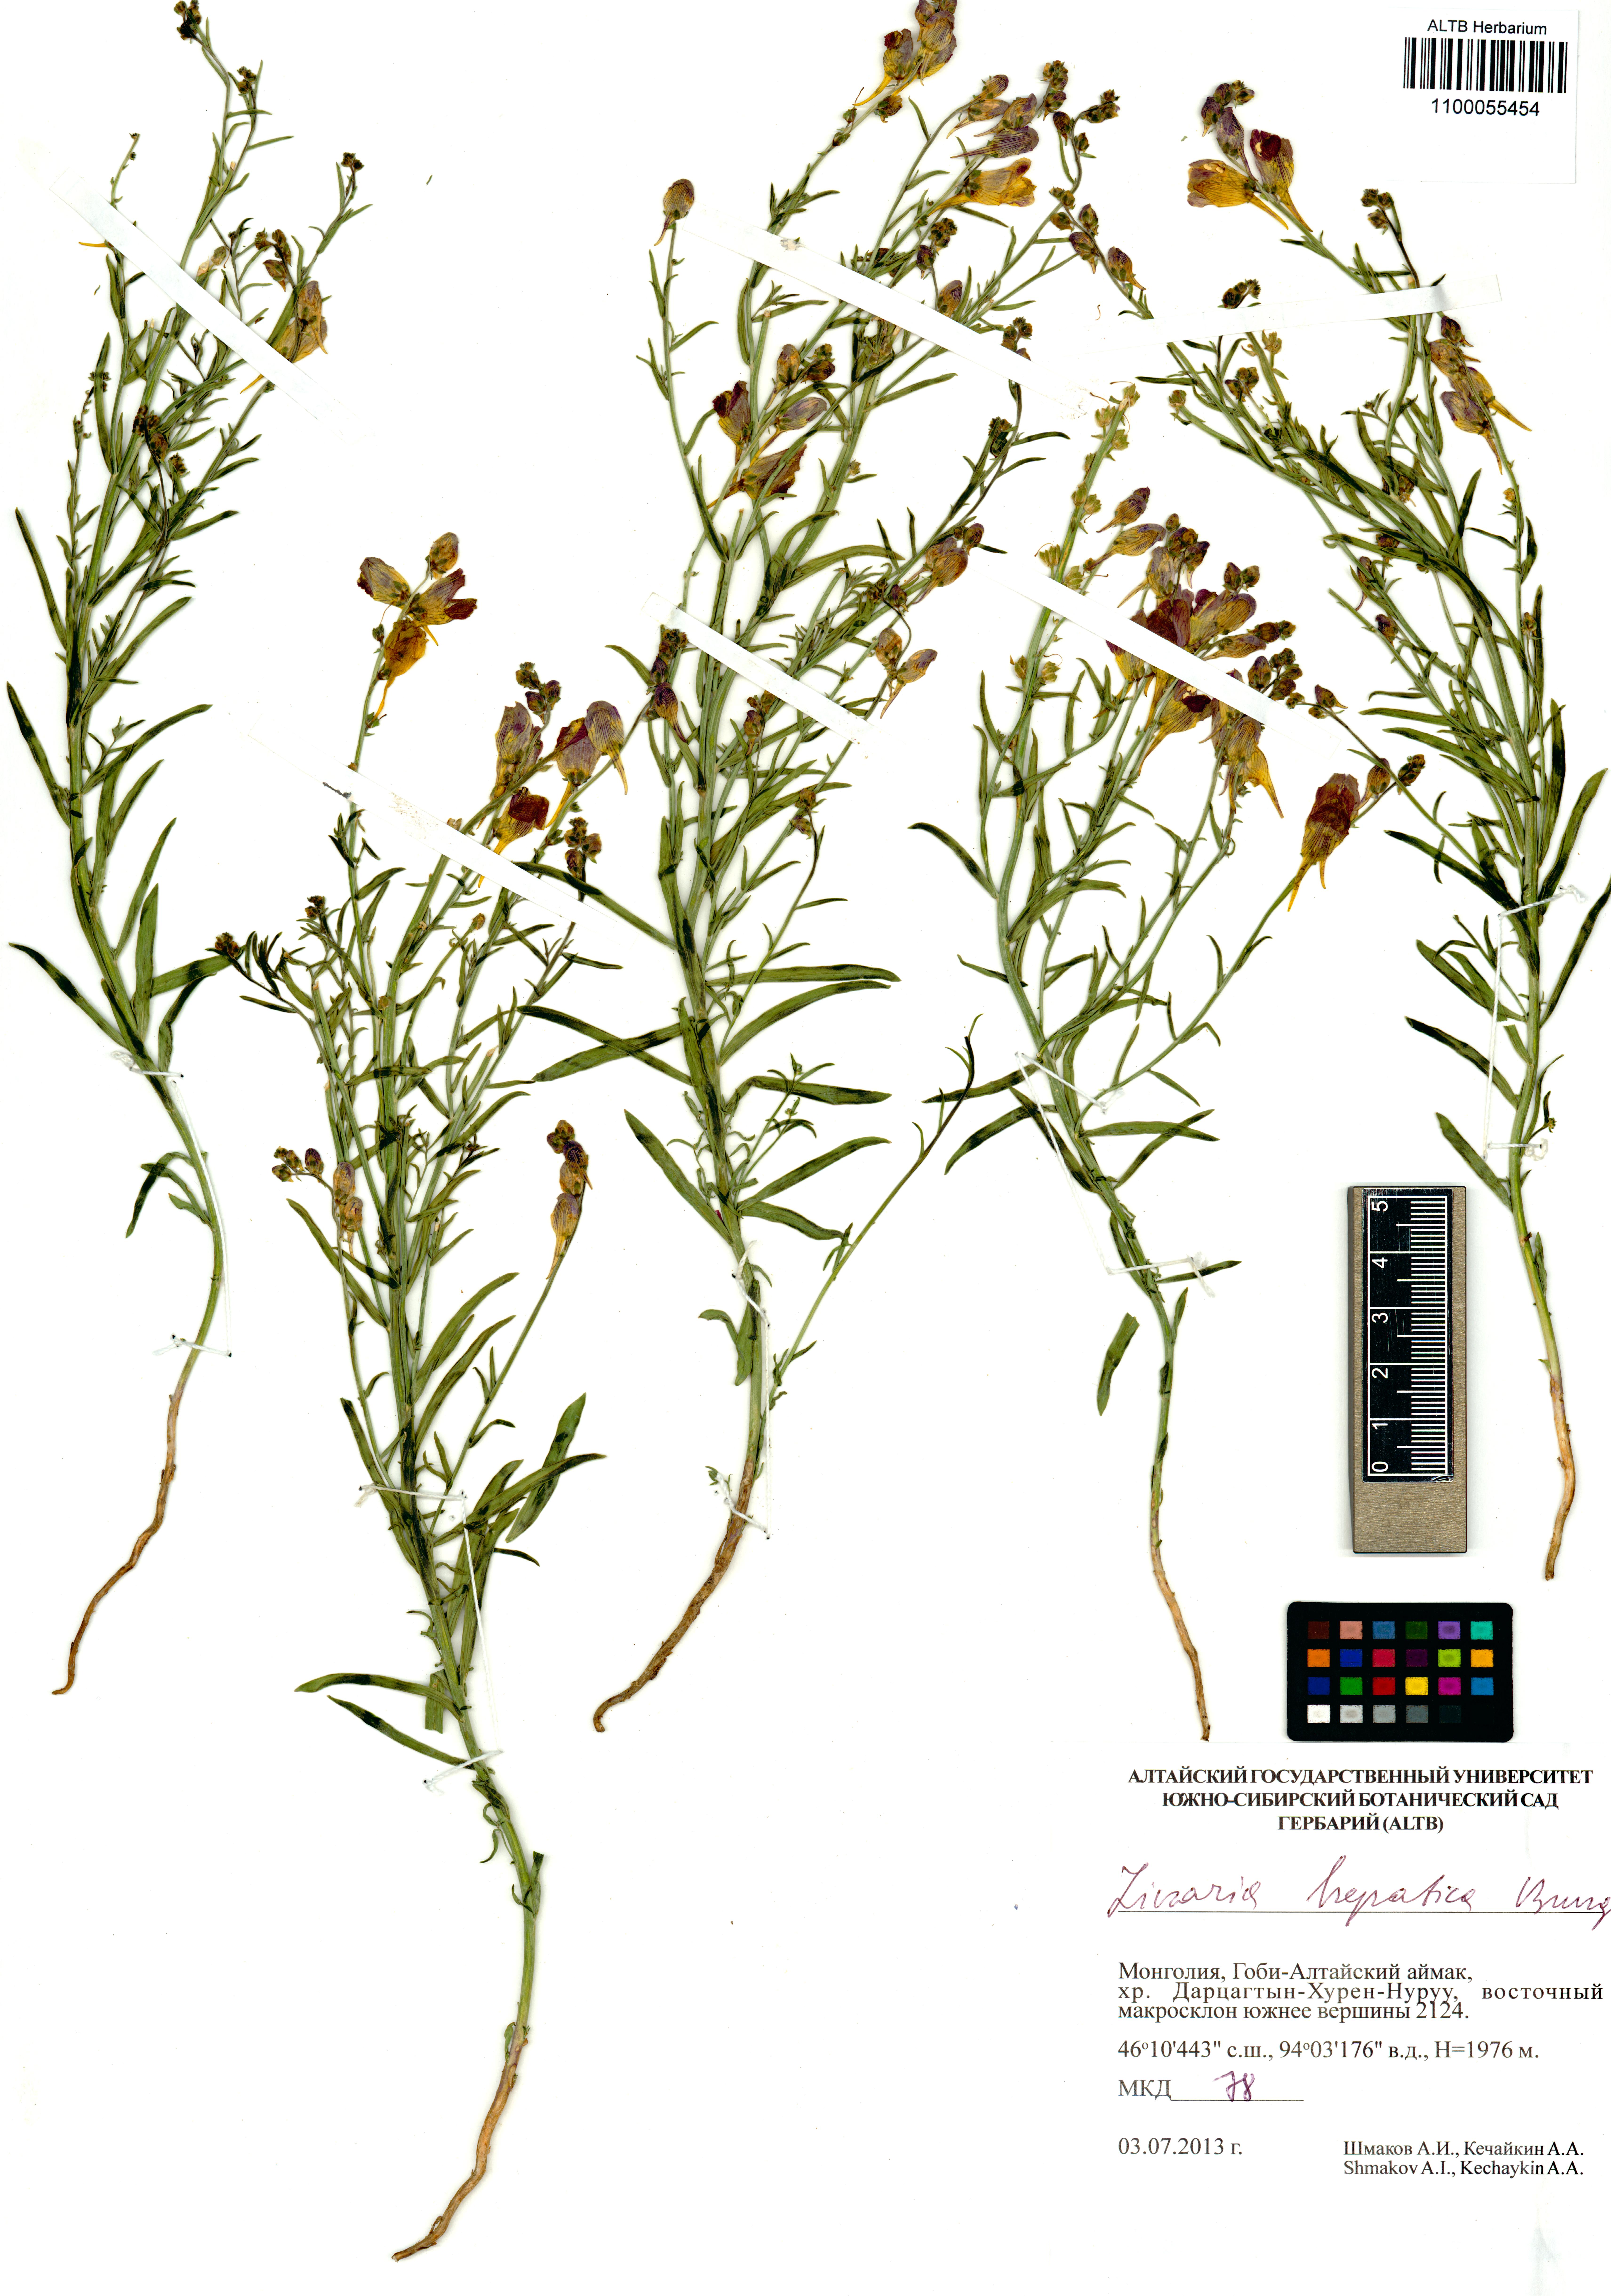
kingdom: Plantae
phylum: Tracheophyta
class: Magnoliopsida
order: Lamiales
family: Plantaginaceae
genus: Linaria
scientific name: Linaria hepatica
